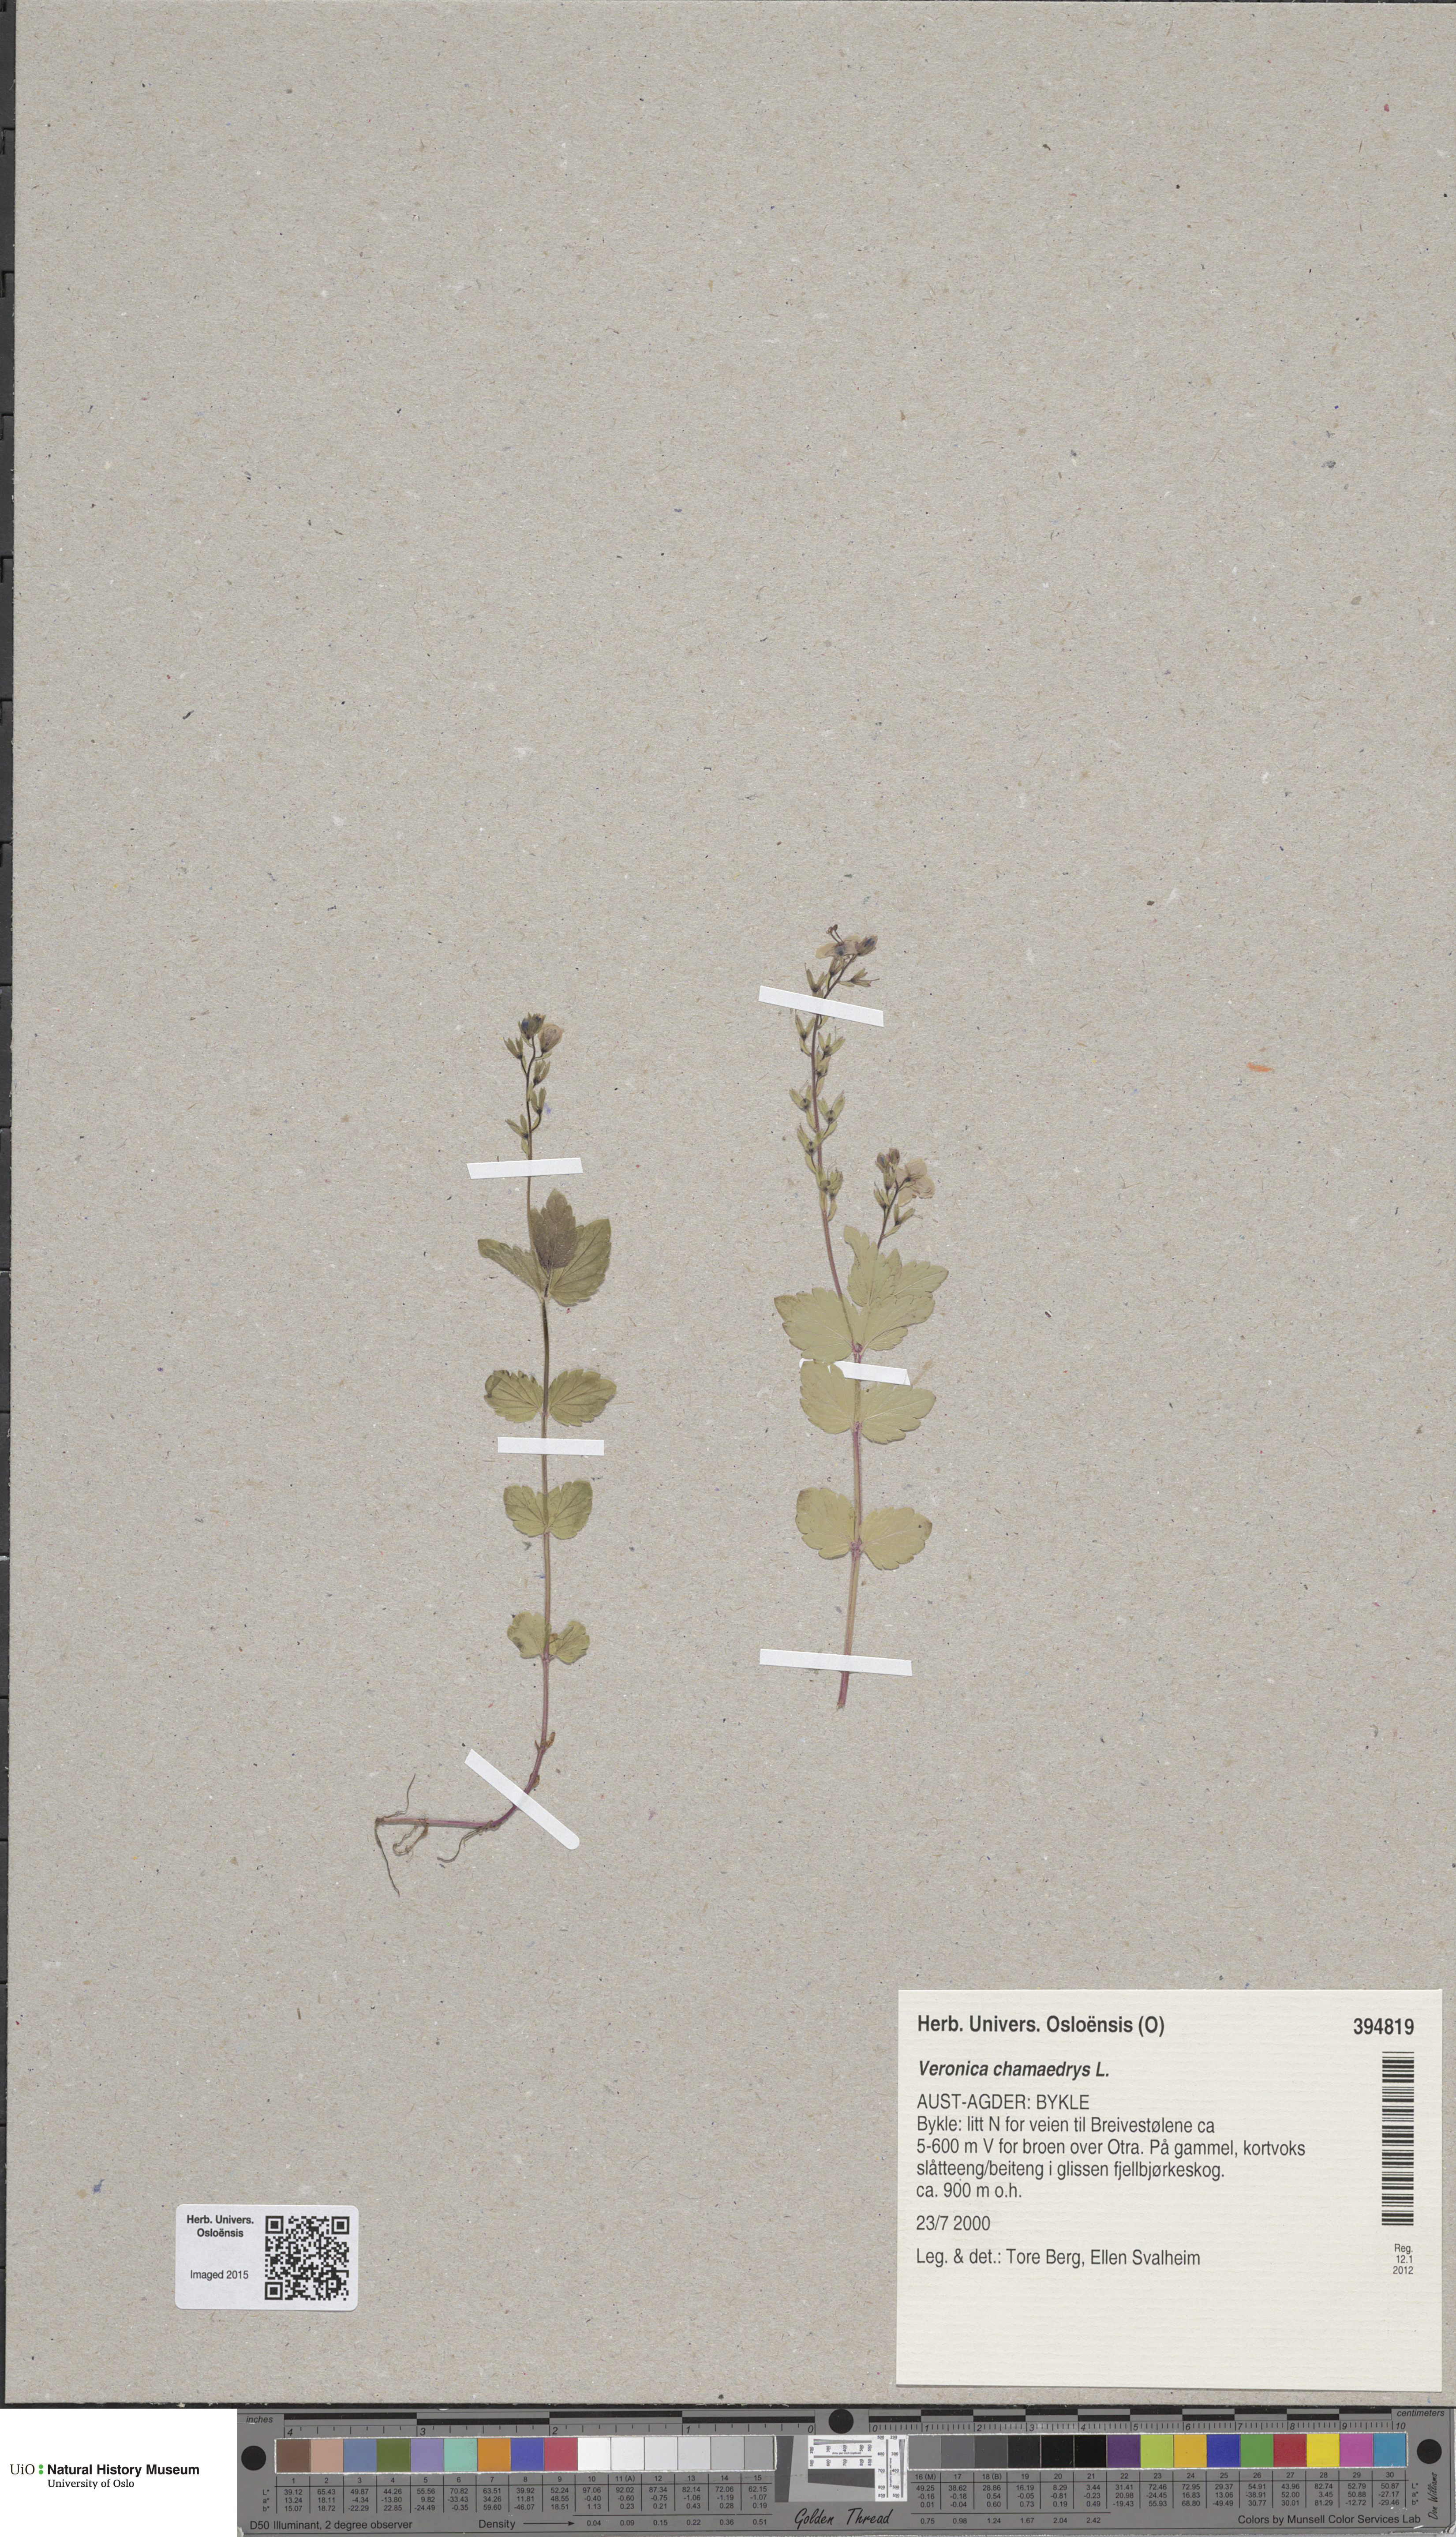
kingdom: Plantae
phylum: Tracheophyta
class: Magnoliopsida
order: Lamiales
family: Plantaginaceae
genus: Veronica
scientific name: Veronica chamaedrys
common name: Germander speedwell
